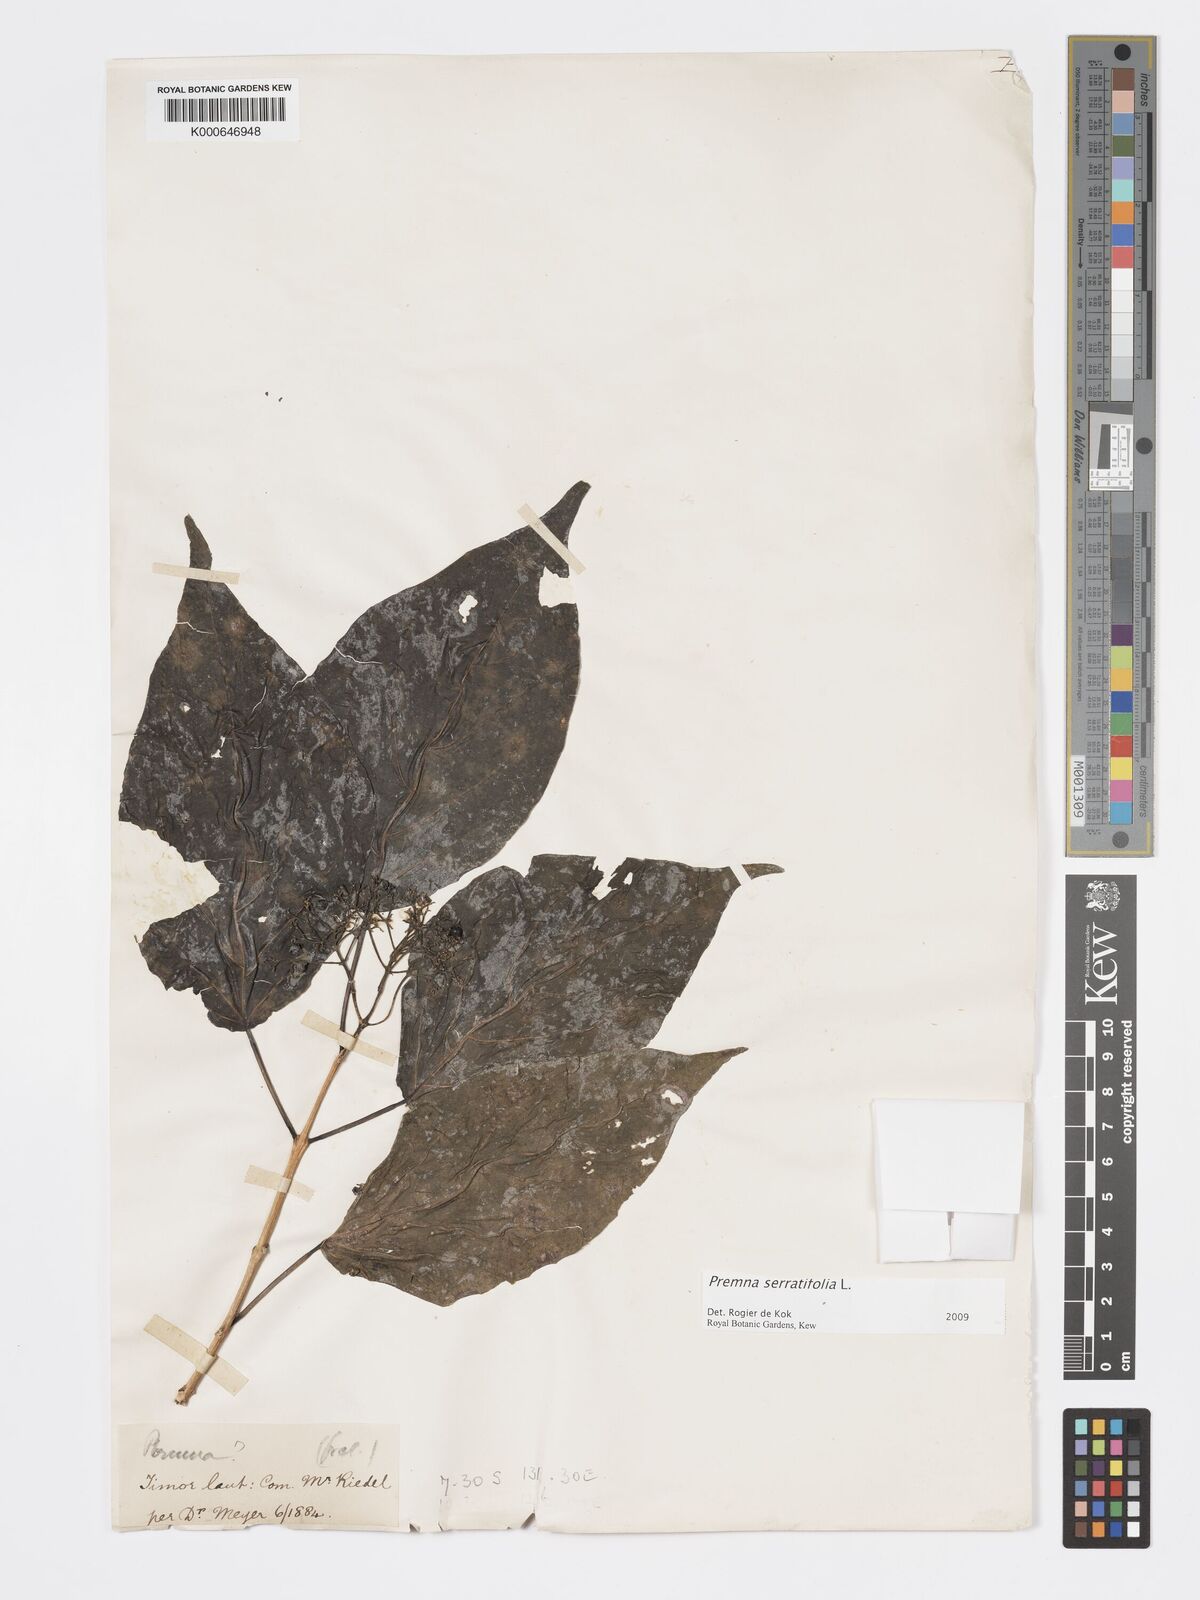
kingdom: Plantae
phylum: Tracheophyta
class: Magnoliopsida
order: Lamiales
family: Lamiaceae
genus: Premna
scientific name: Premna serratifolia
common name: Bastard guelder
